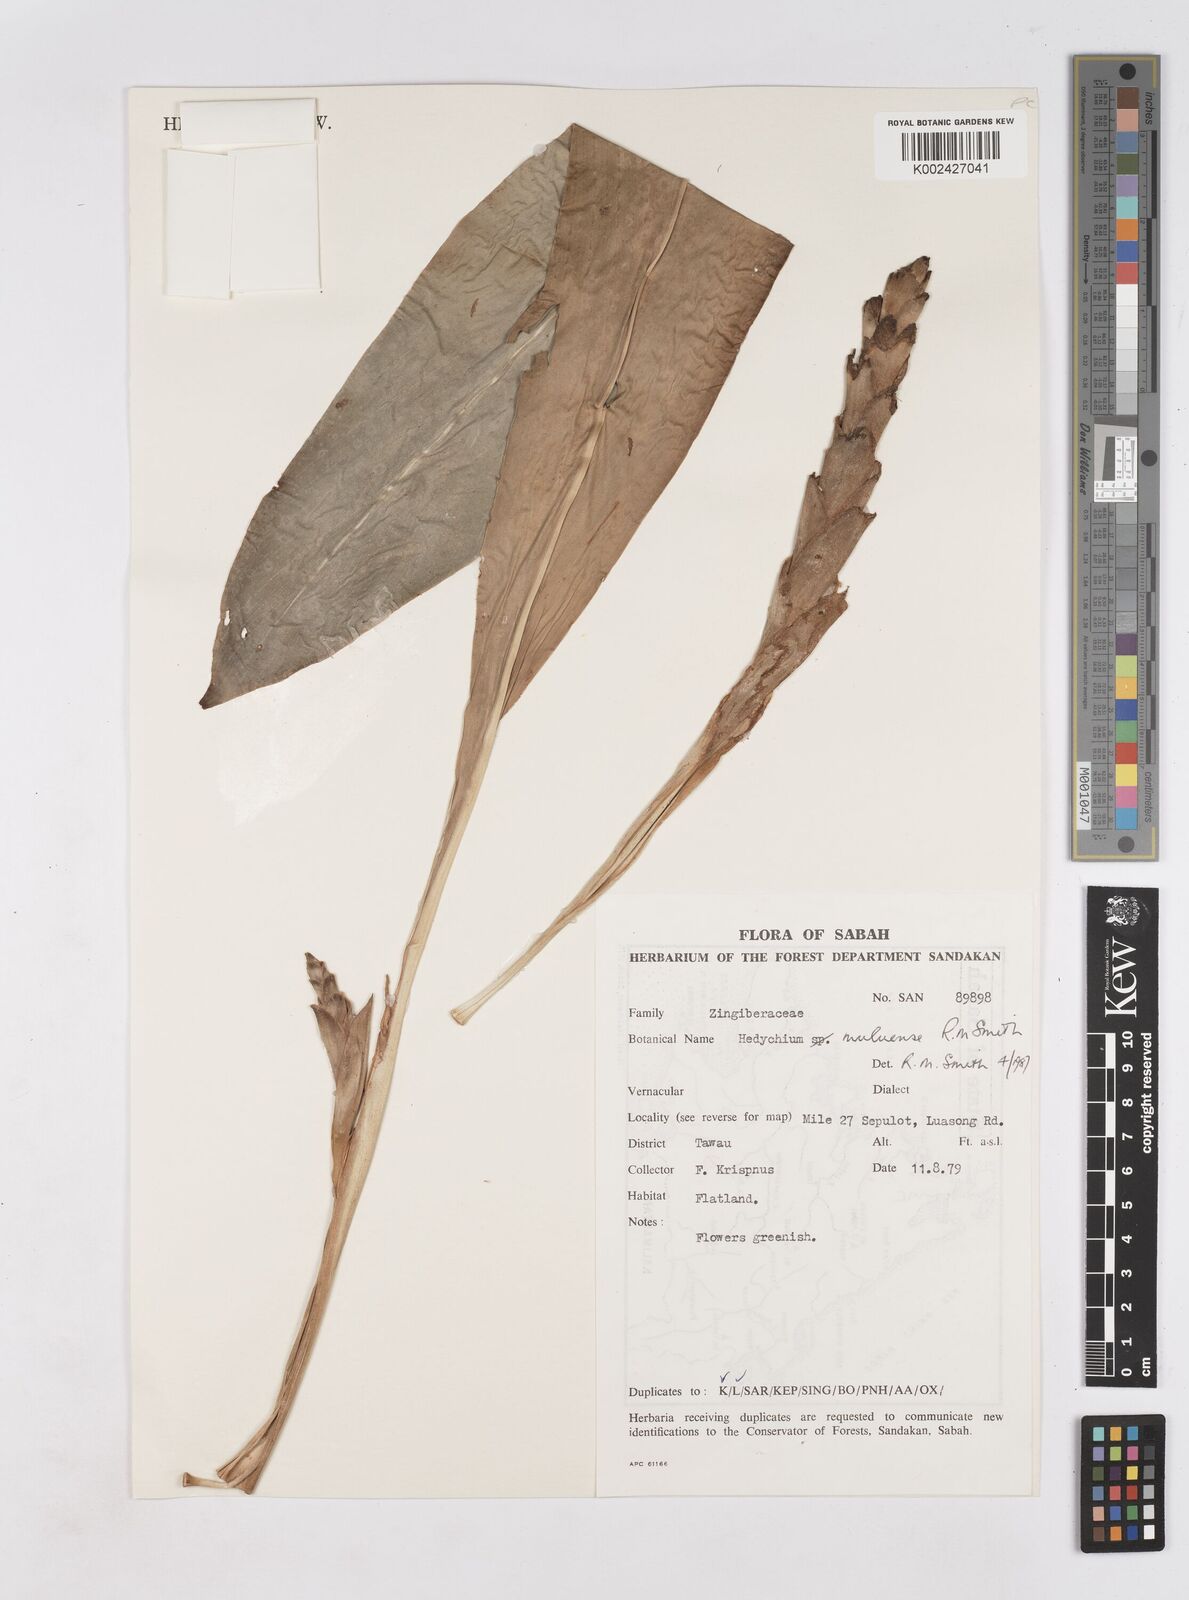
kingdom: Plantae
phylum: Tracheophyta
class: Liliopsida
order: Zingiberales
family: Zingiberaceae
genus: Hedychium
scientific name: Hedychium muluense
